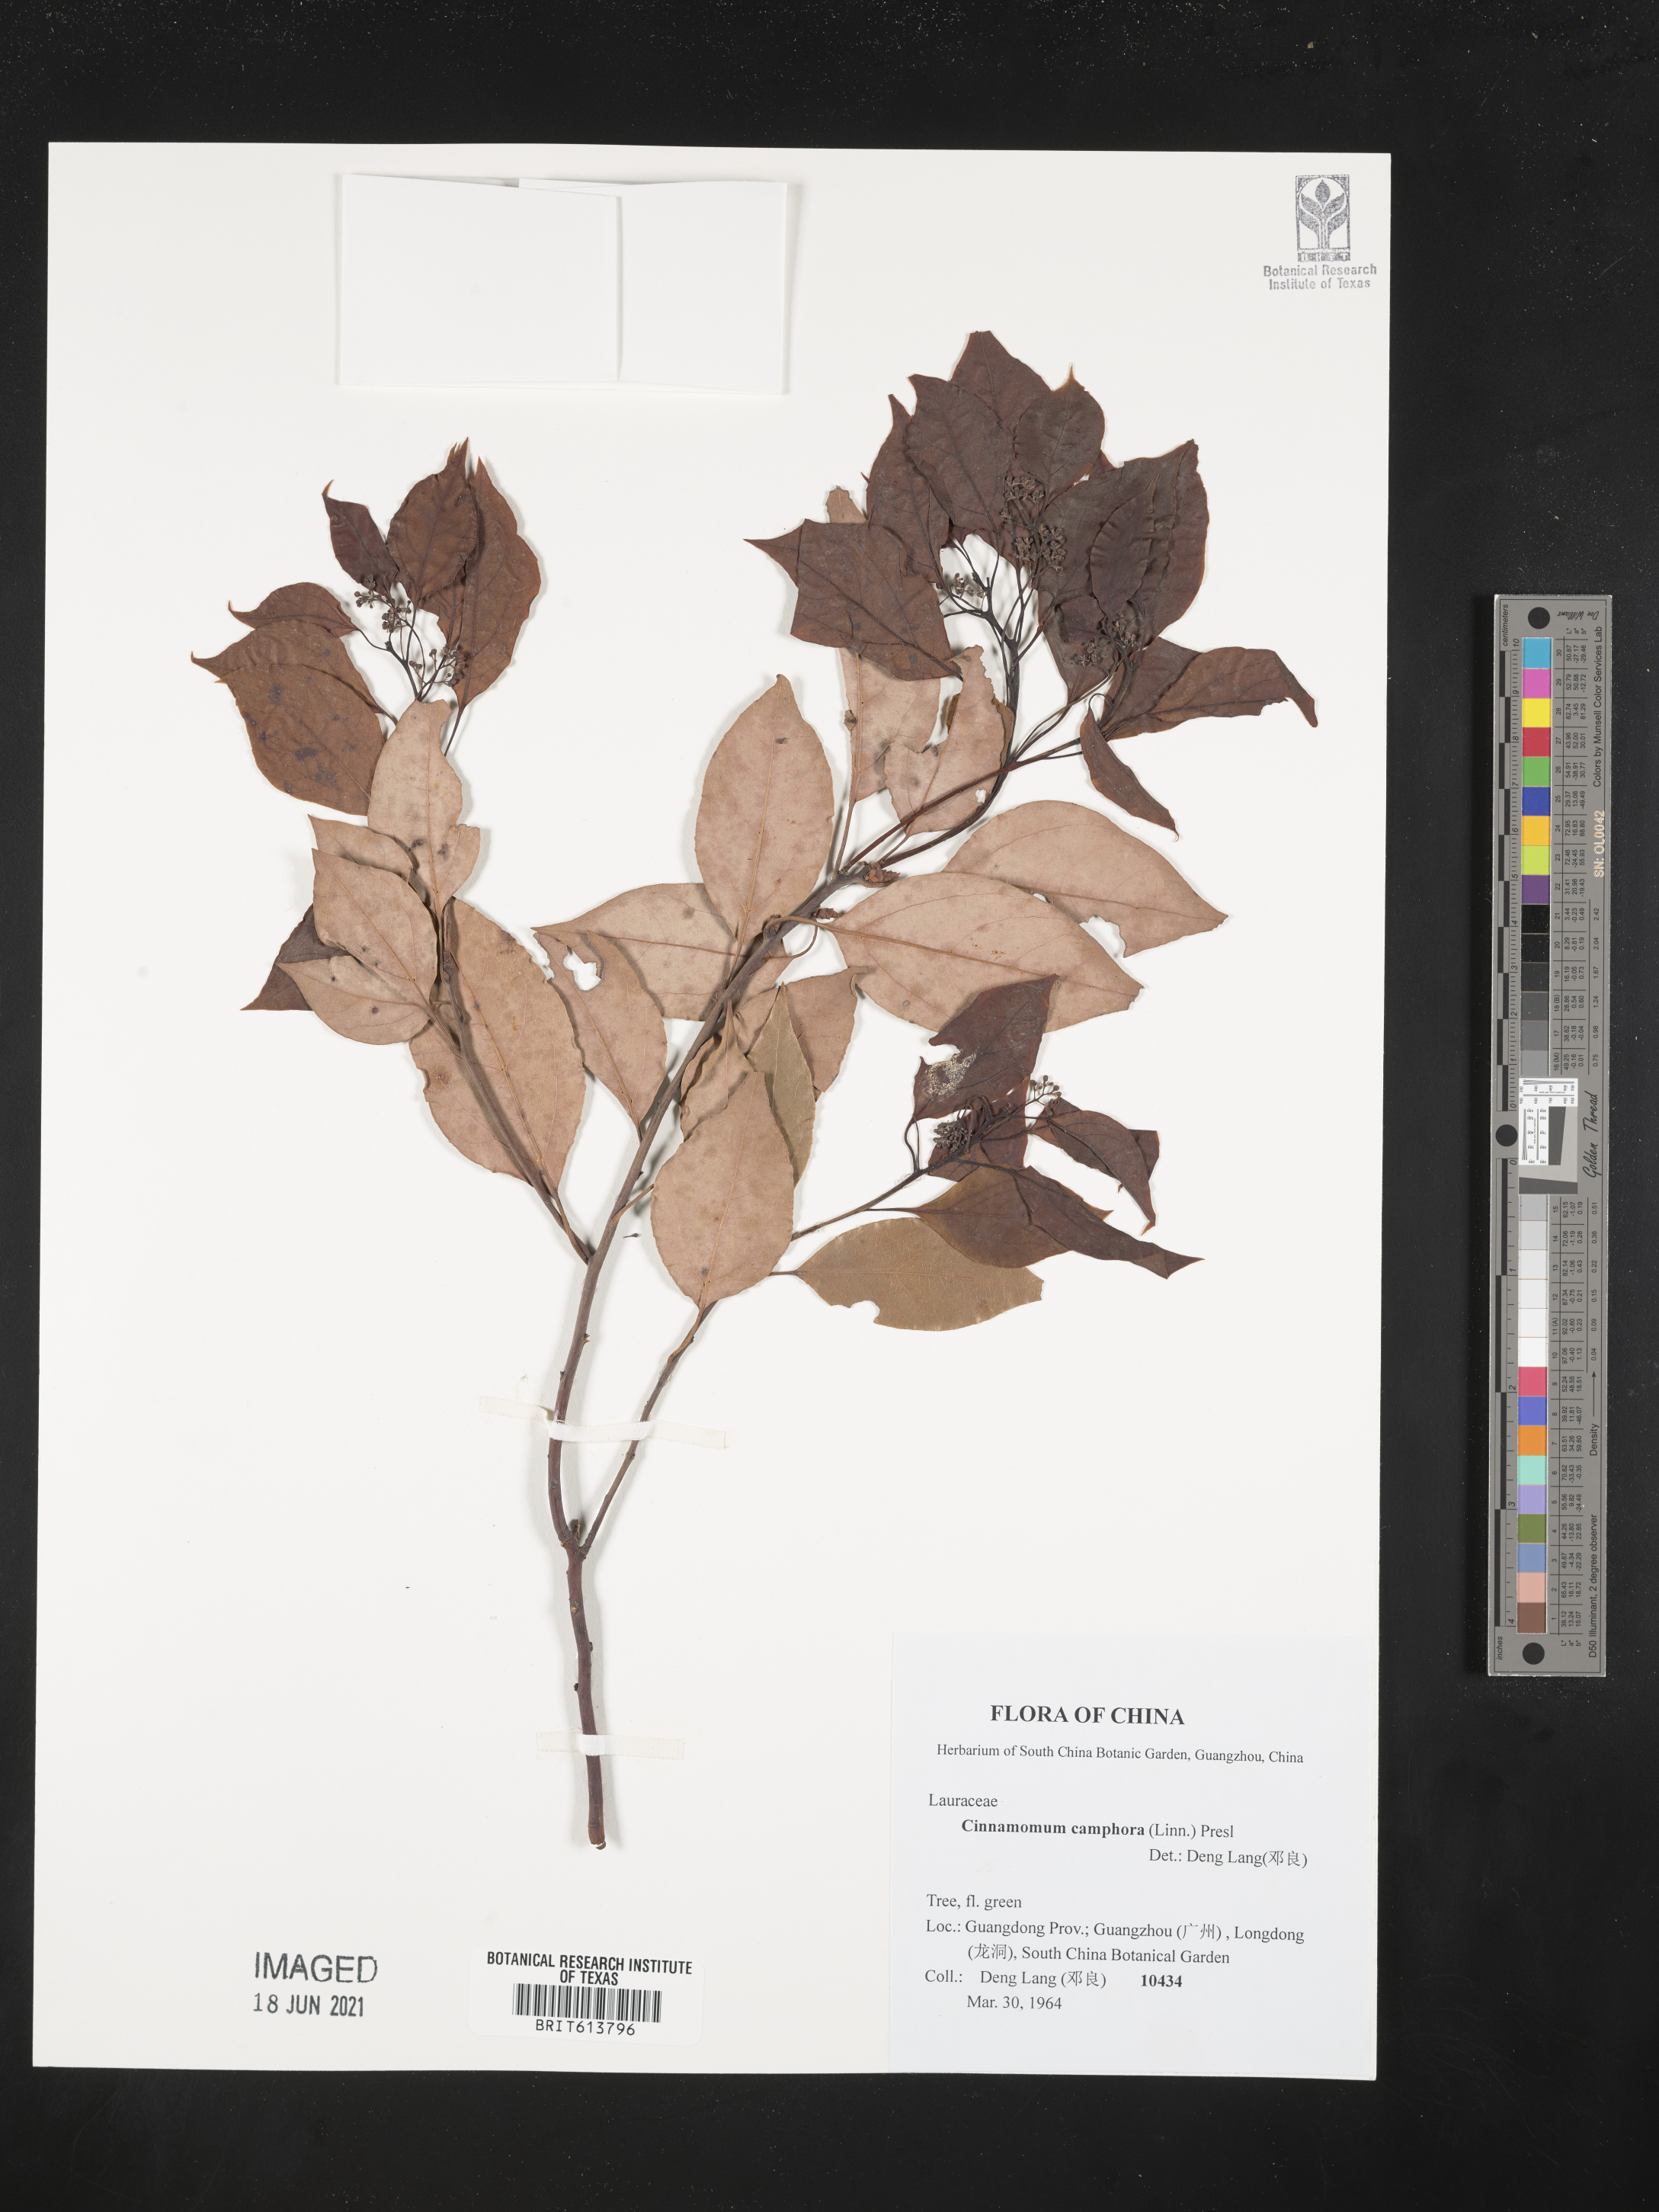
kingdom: Plantae
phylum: Tracheophyta
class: Magnoliopsida
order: Laurales
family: Lauraceae
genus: Cinnamomum
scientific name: Cinnamomum camphora
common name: Camphortree
